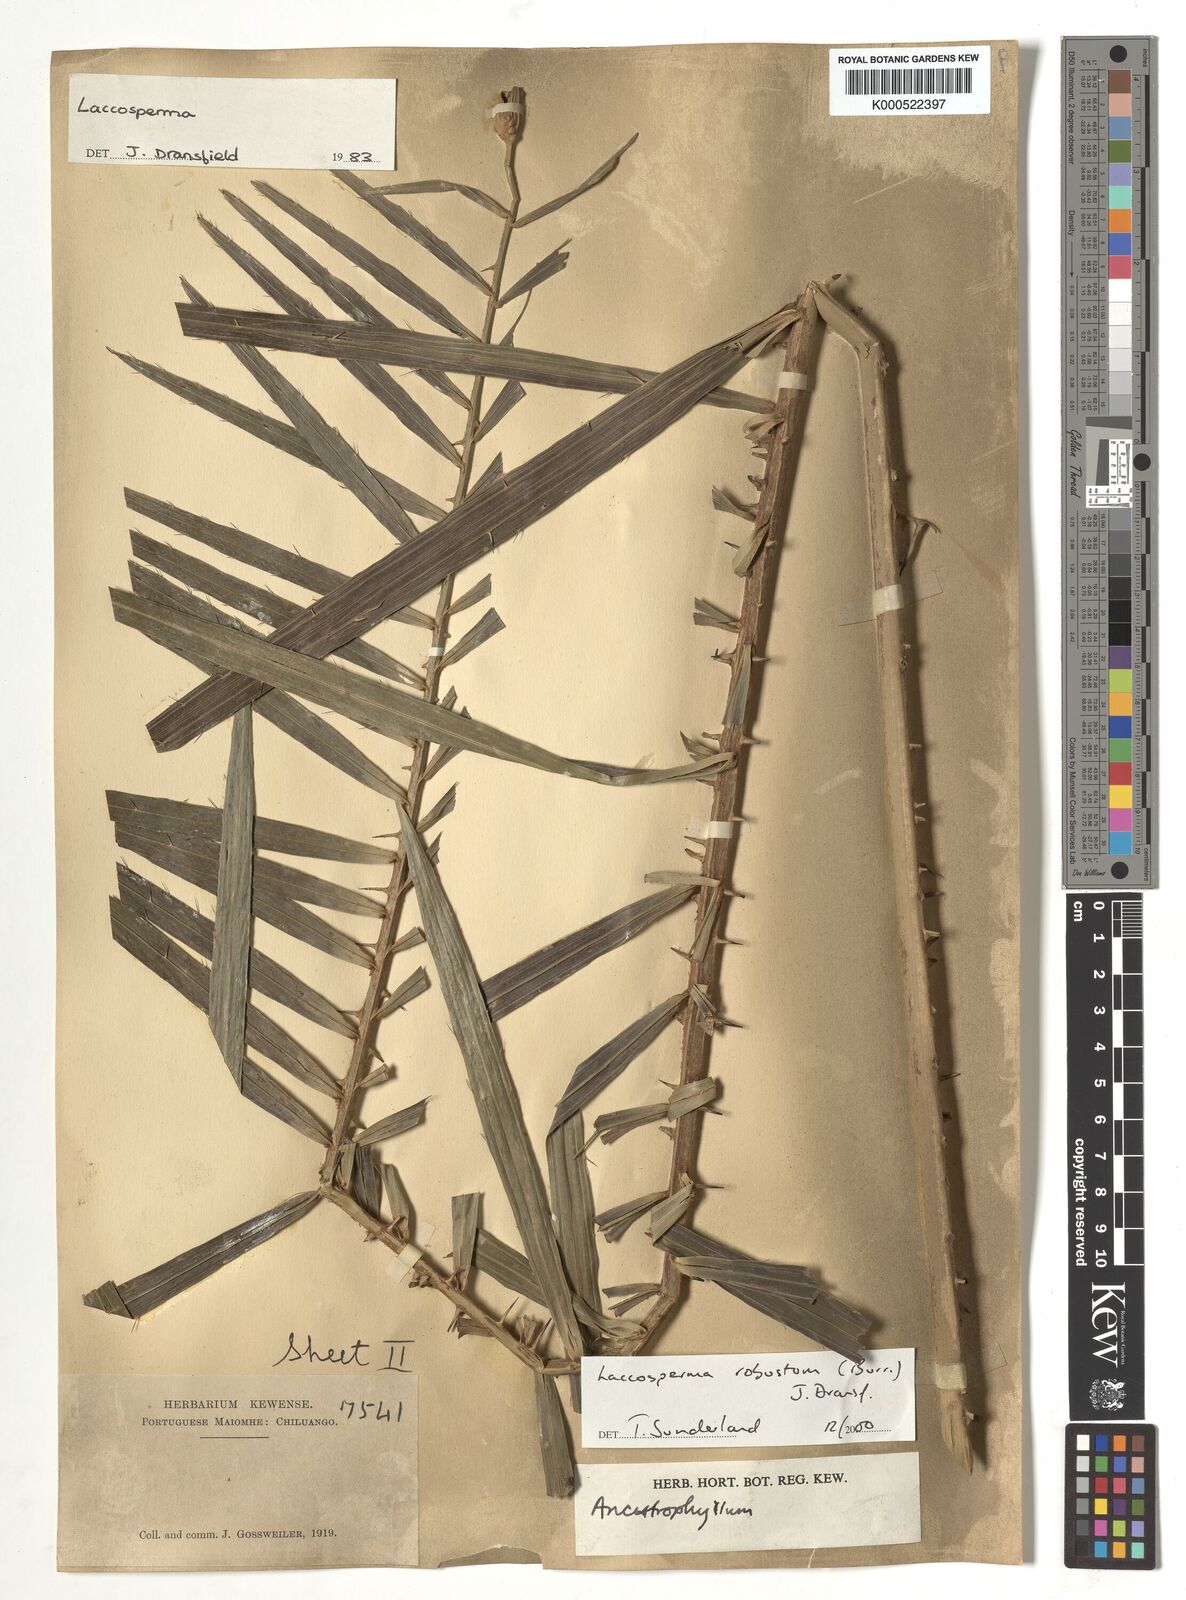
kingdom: Plantae
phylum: Tracheophyta
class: Liliopsida
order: Arecales
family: Arecaceae
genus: Laccosperma
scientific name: Laccosperma robustum
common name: Rattan
